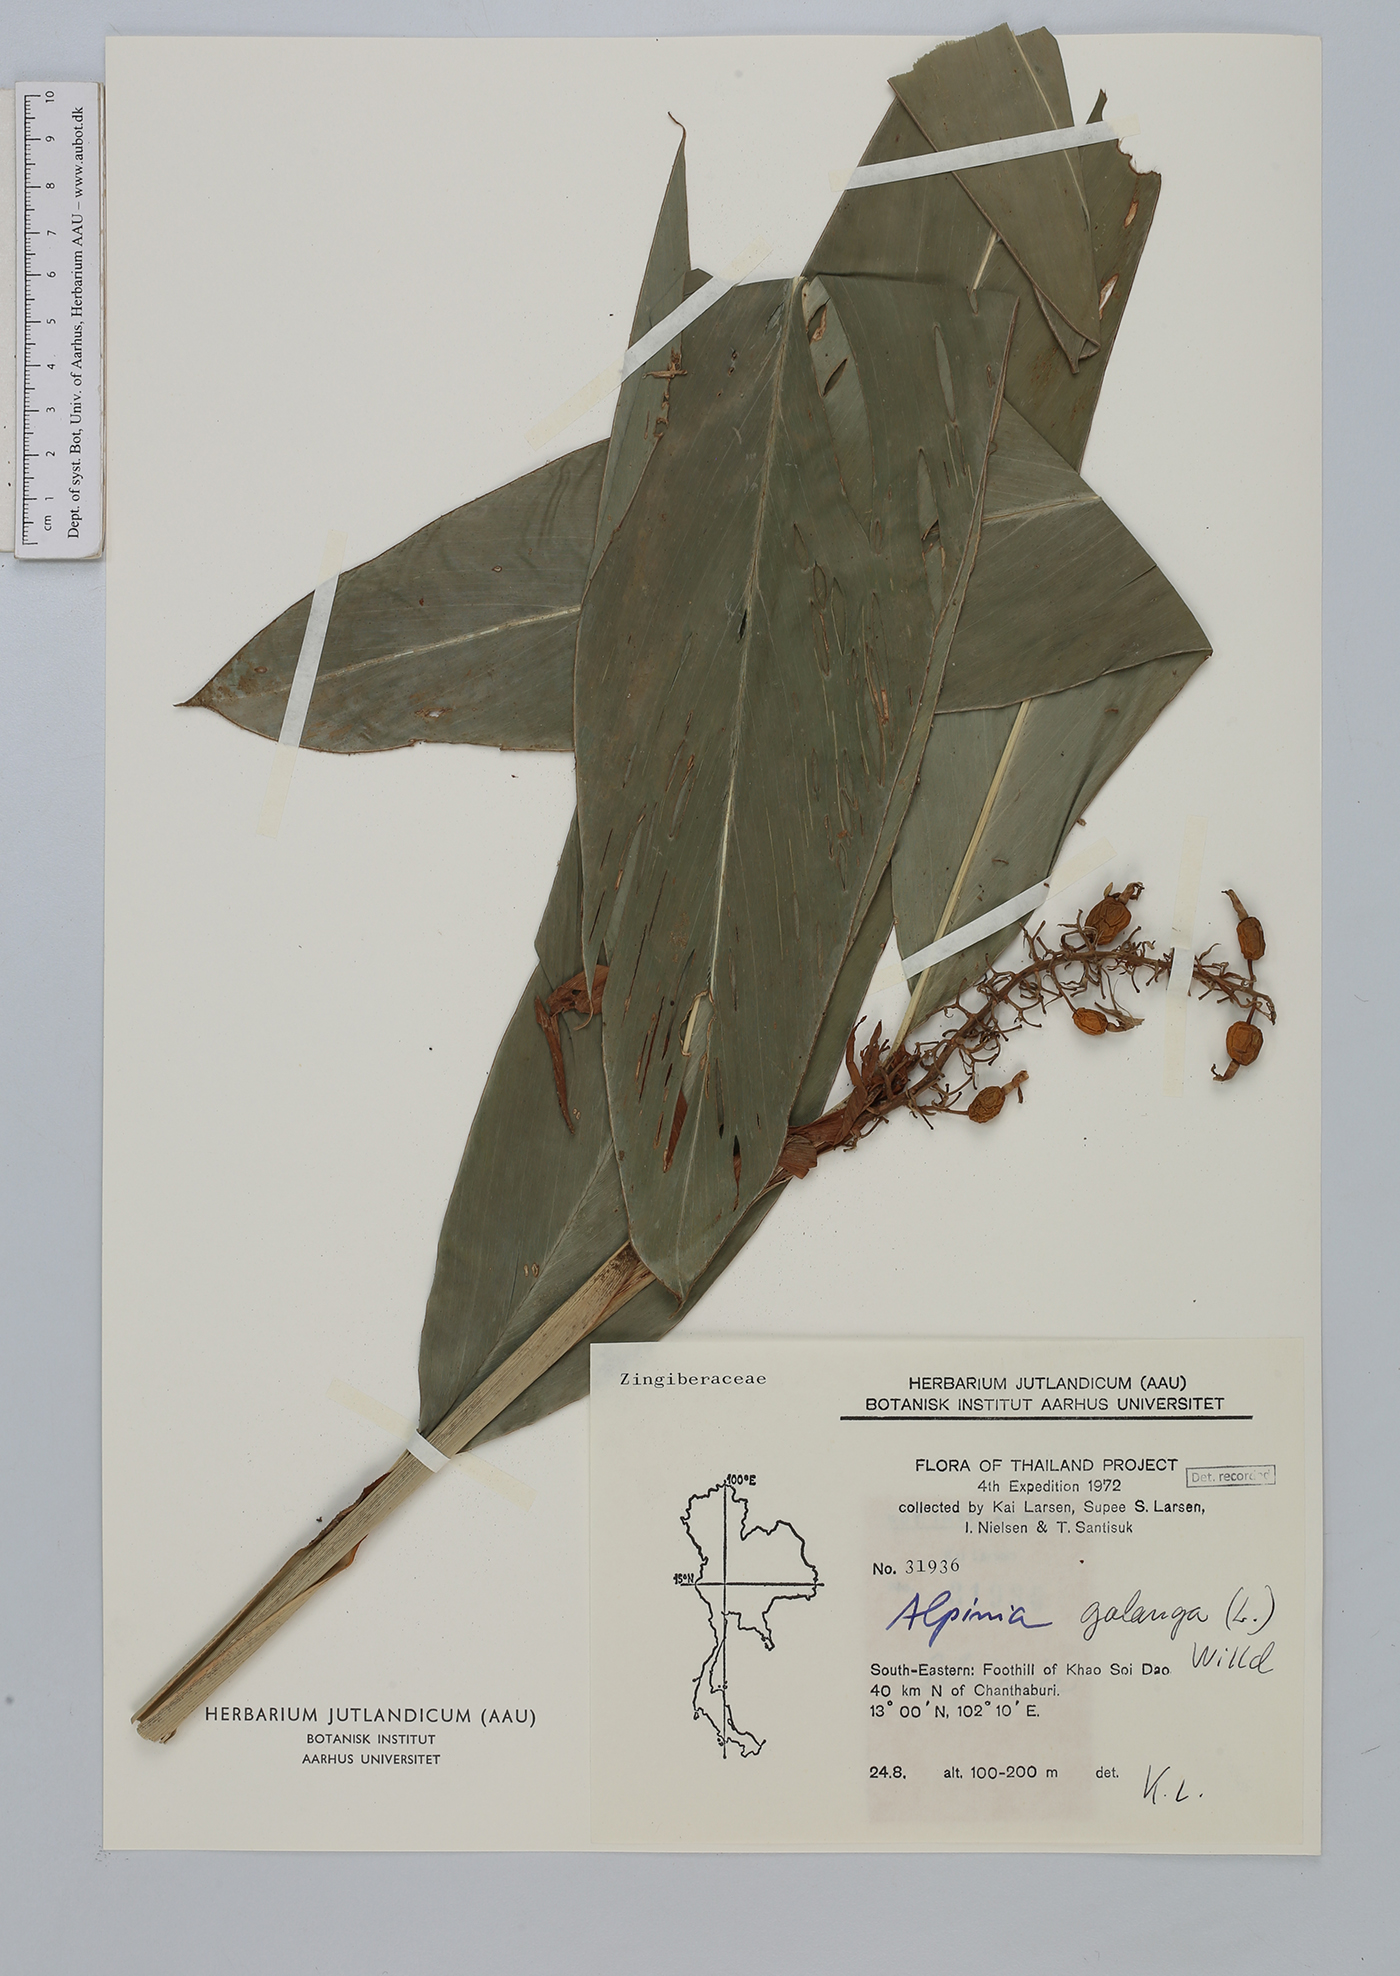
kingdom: Plantae
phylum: Tracheophyta
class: Liliopsida
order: Zingiberales
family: Zingiberaceae
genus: Alpinia
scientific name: Alpinia galanga
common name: Siamese-ginger
